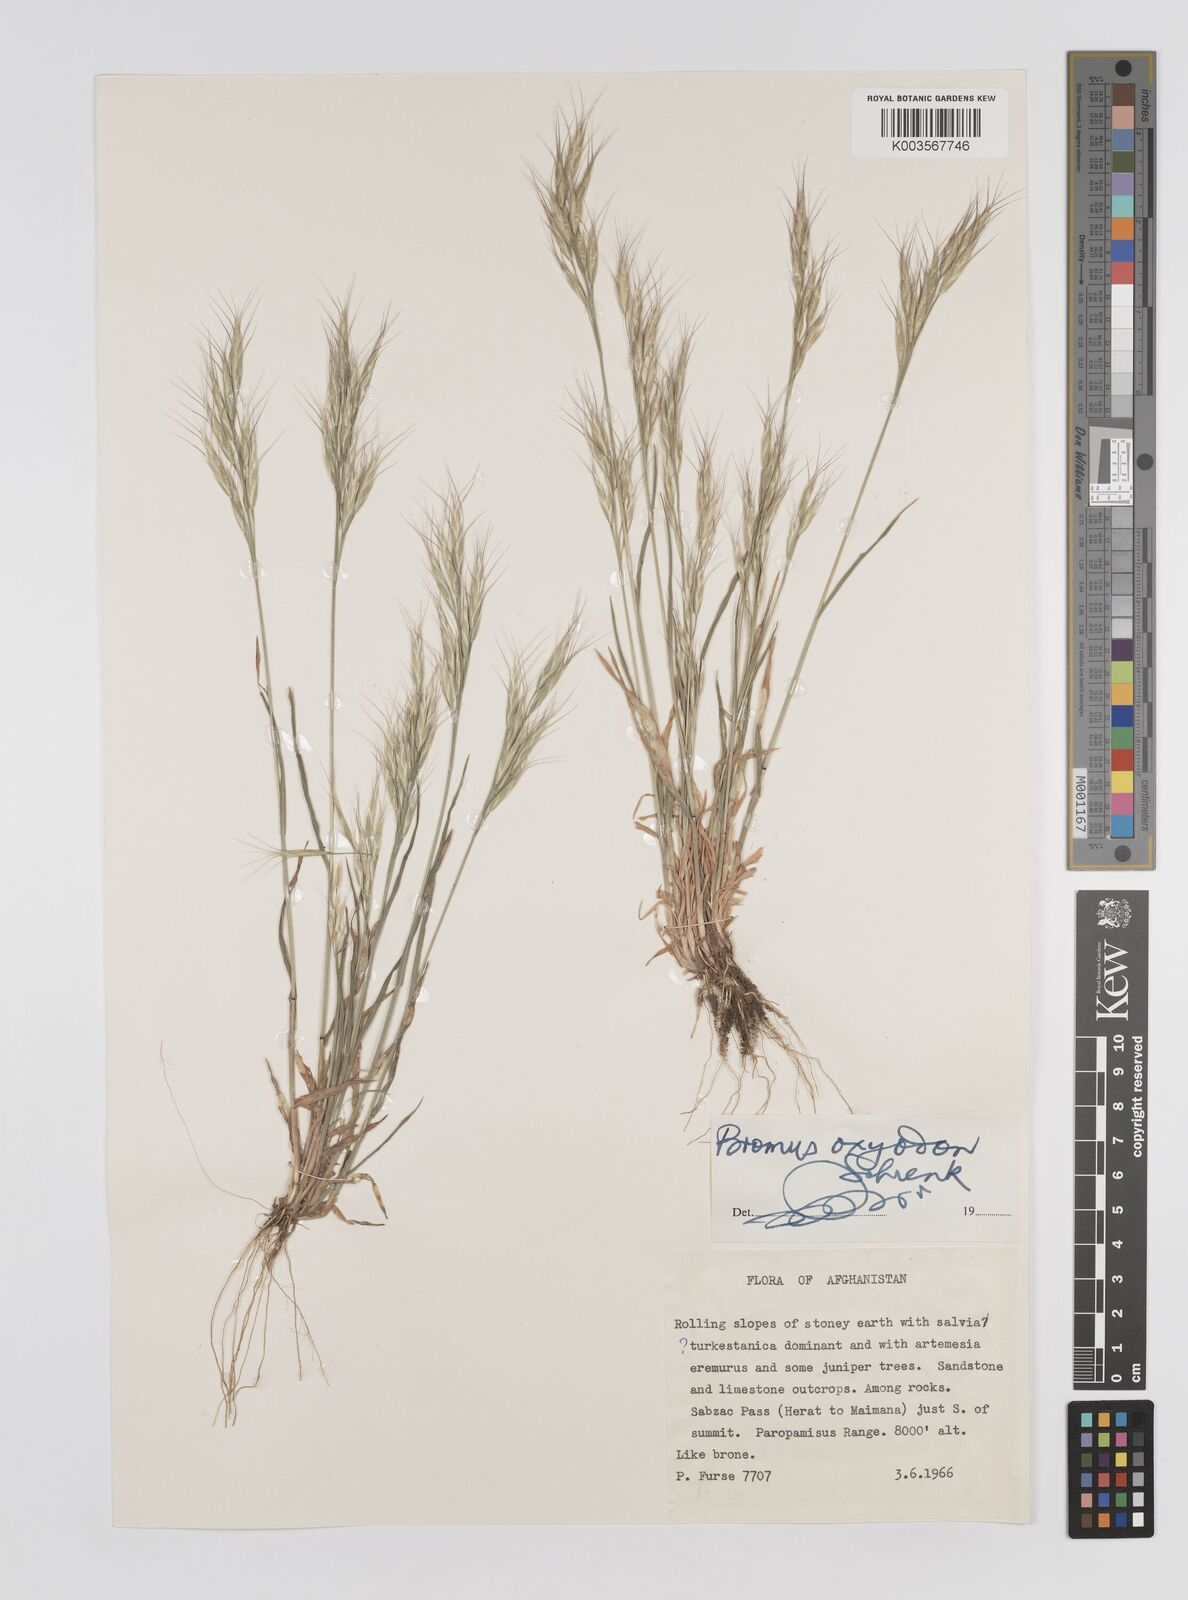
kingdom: Plantae
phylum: Tracheophyta
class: Liliopsida
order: Poales
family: Poaceae
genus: Bromus
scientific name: Bromus
